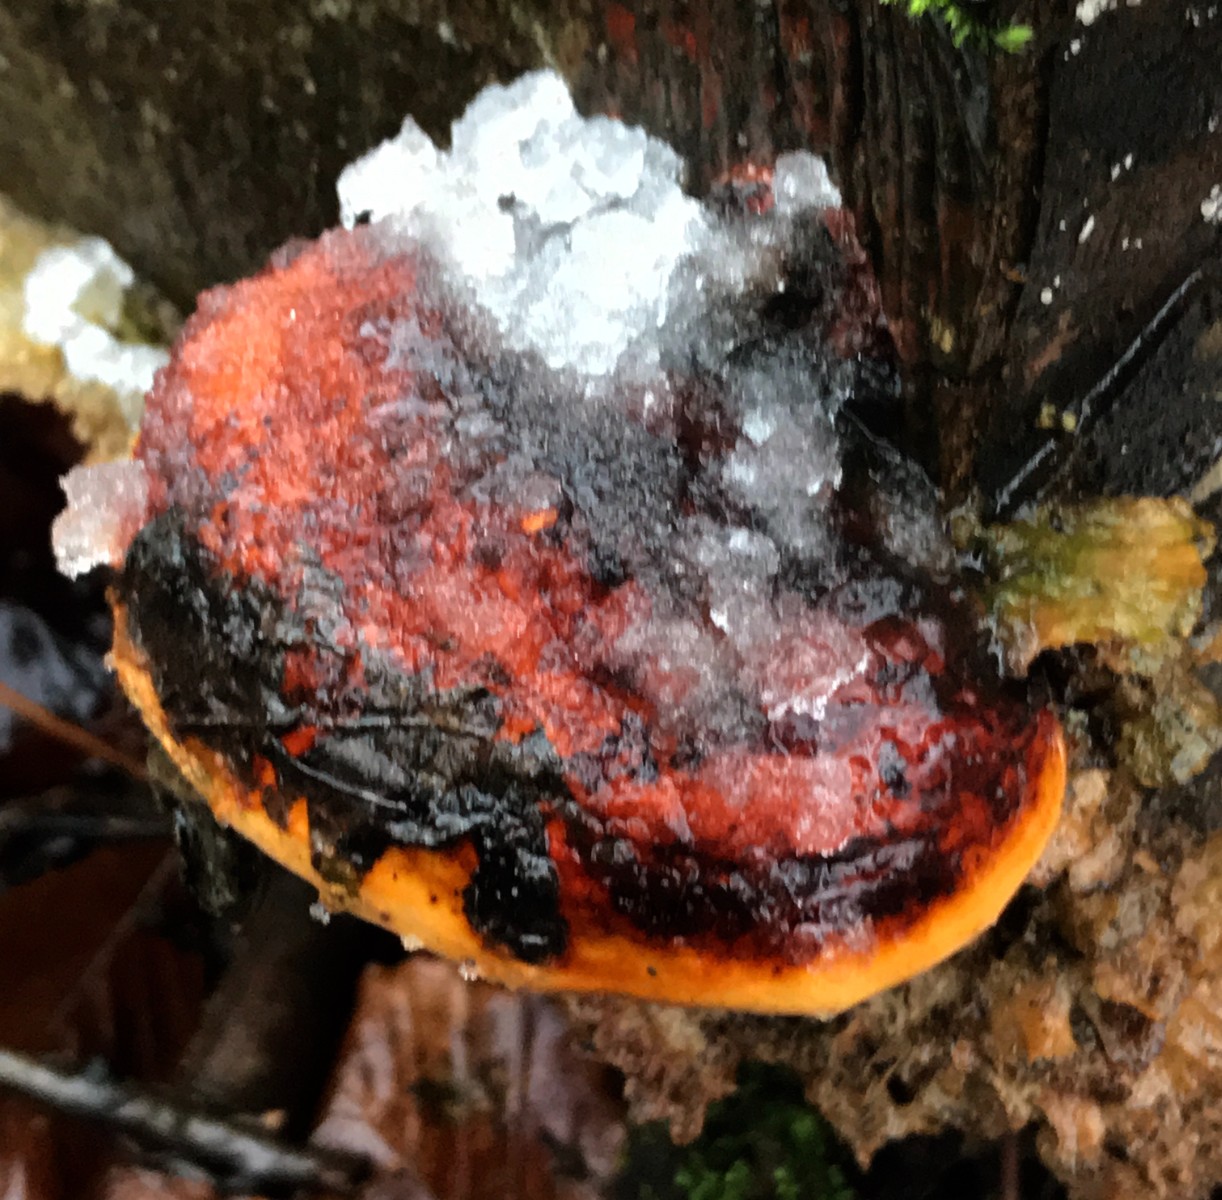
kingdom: Fungi
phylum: Basidiomycota
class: Agaricomycetes
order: Polyporales
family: Fomitopsidaceae
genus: Fomitopsis
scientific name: Fomitopsis pinicola
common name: randbæltet hovporesvamp
